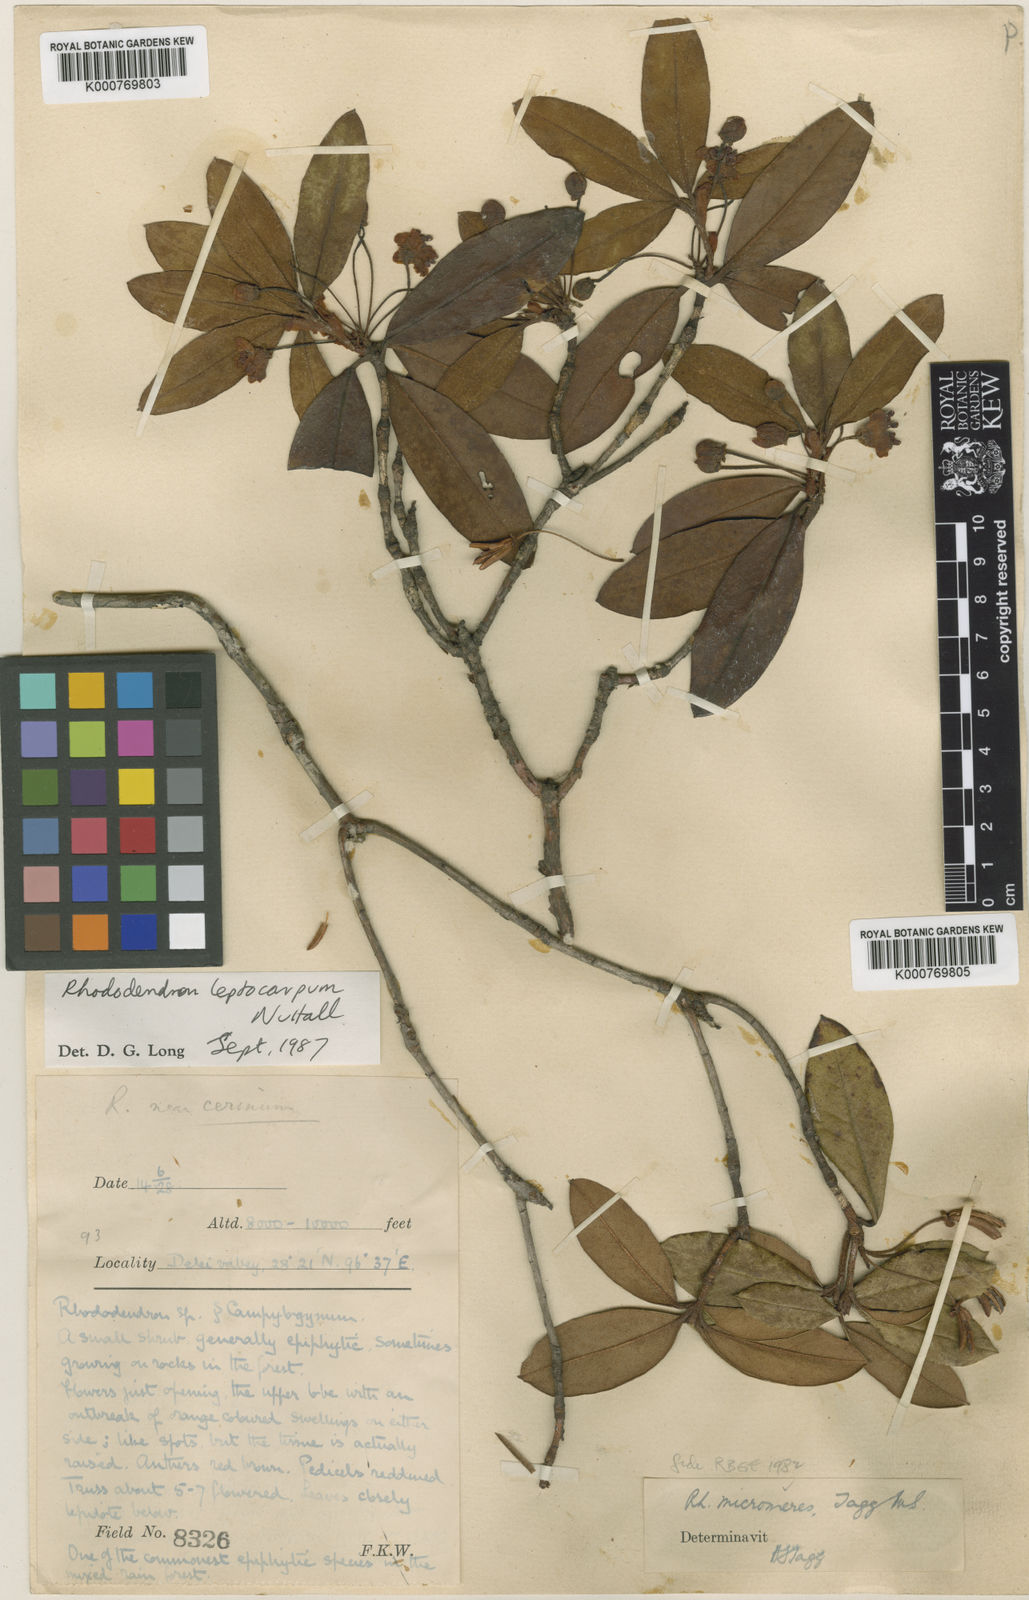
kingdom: Plantae
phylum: Tracheophyta
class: Magnoliopsida
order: Ericales
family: Ericaceae
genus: Rhododendron
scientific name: Rhododendron leptocarpum
